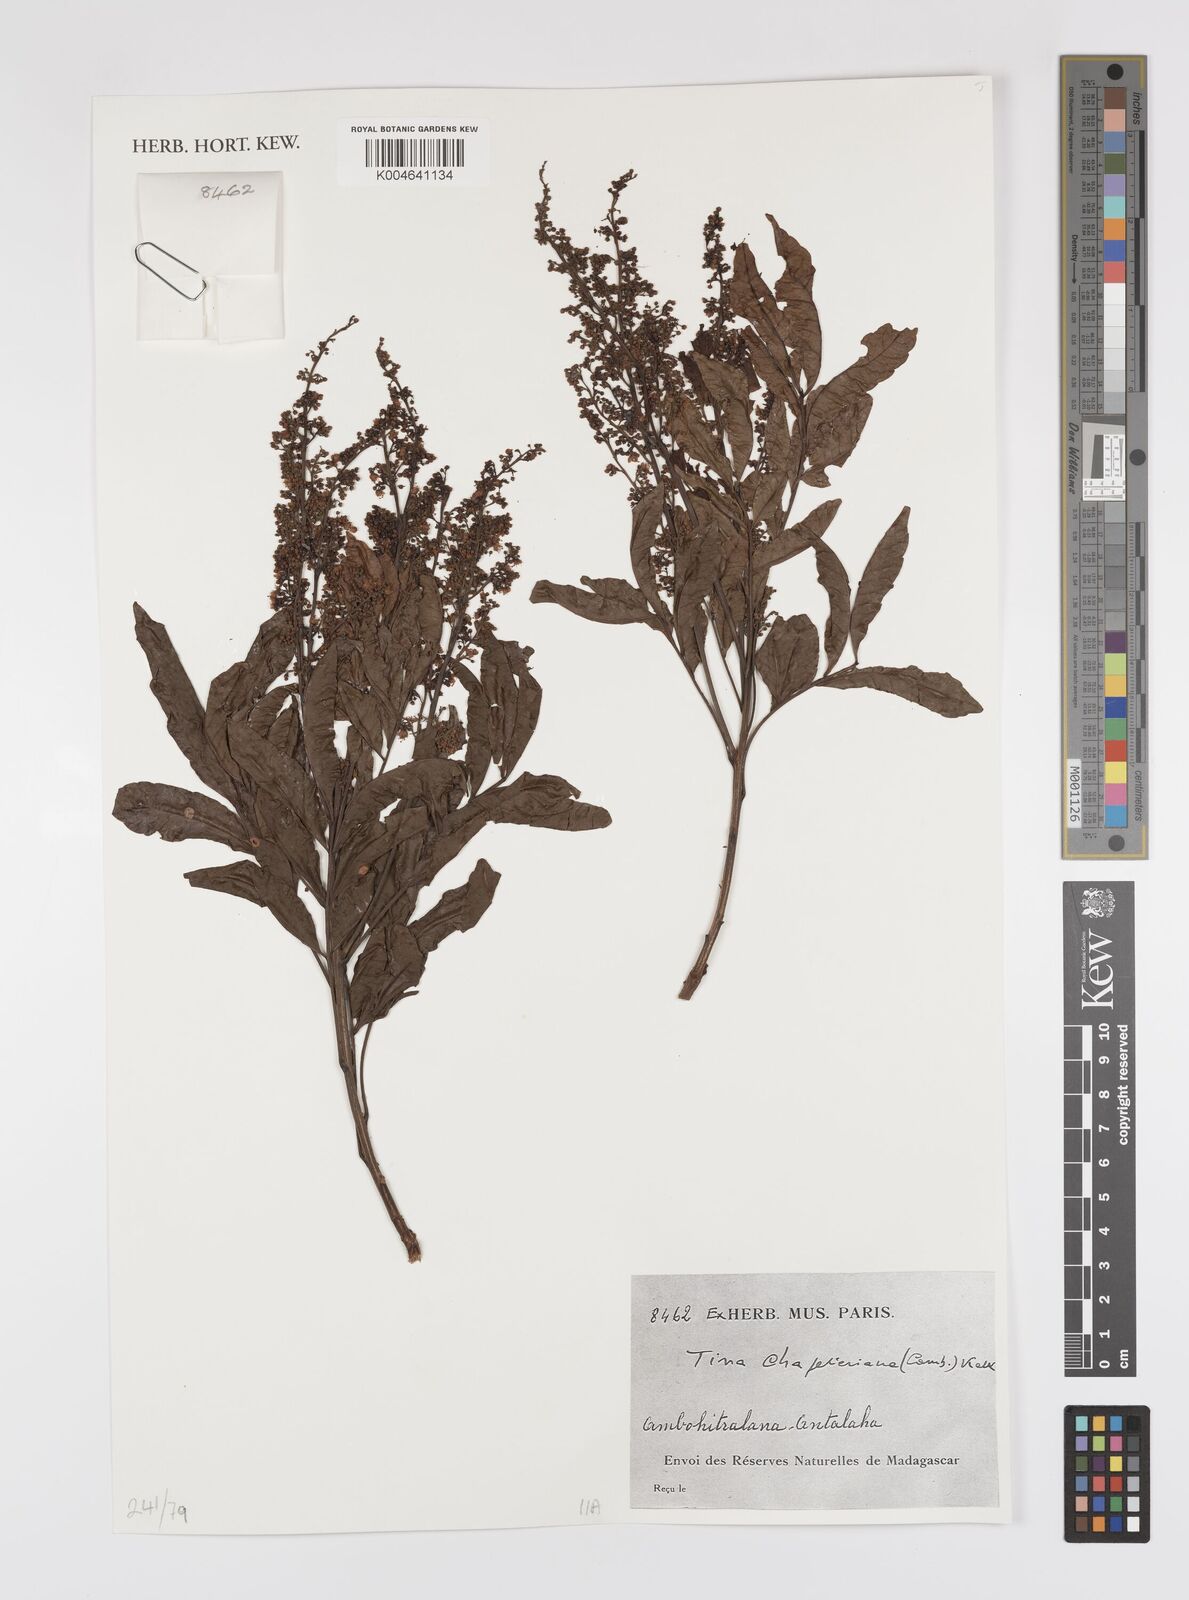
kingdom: Plantae
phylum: Tracheophyta
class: Magnoliopsida
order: Sapindales
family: Sapindaceae
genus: Tina
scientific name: Tina chapelieriana
